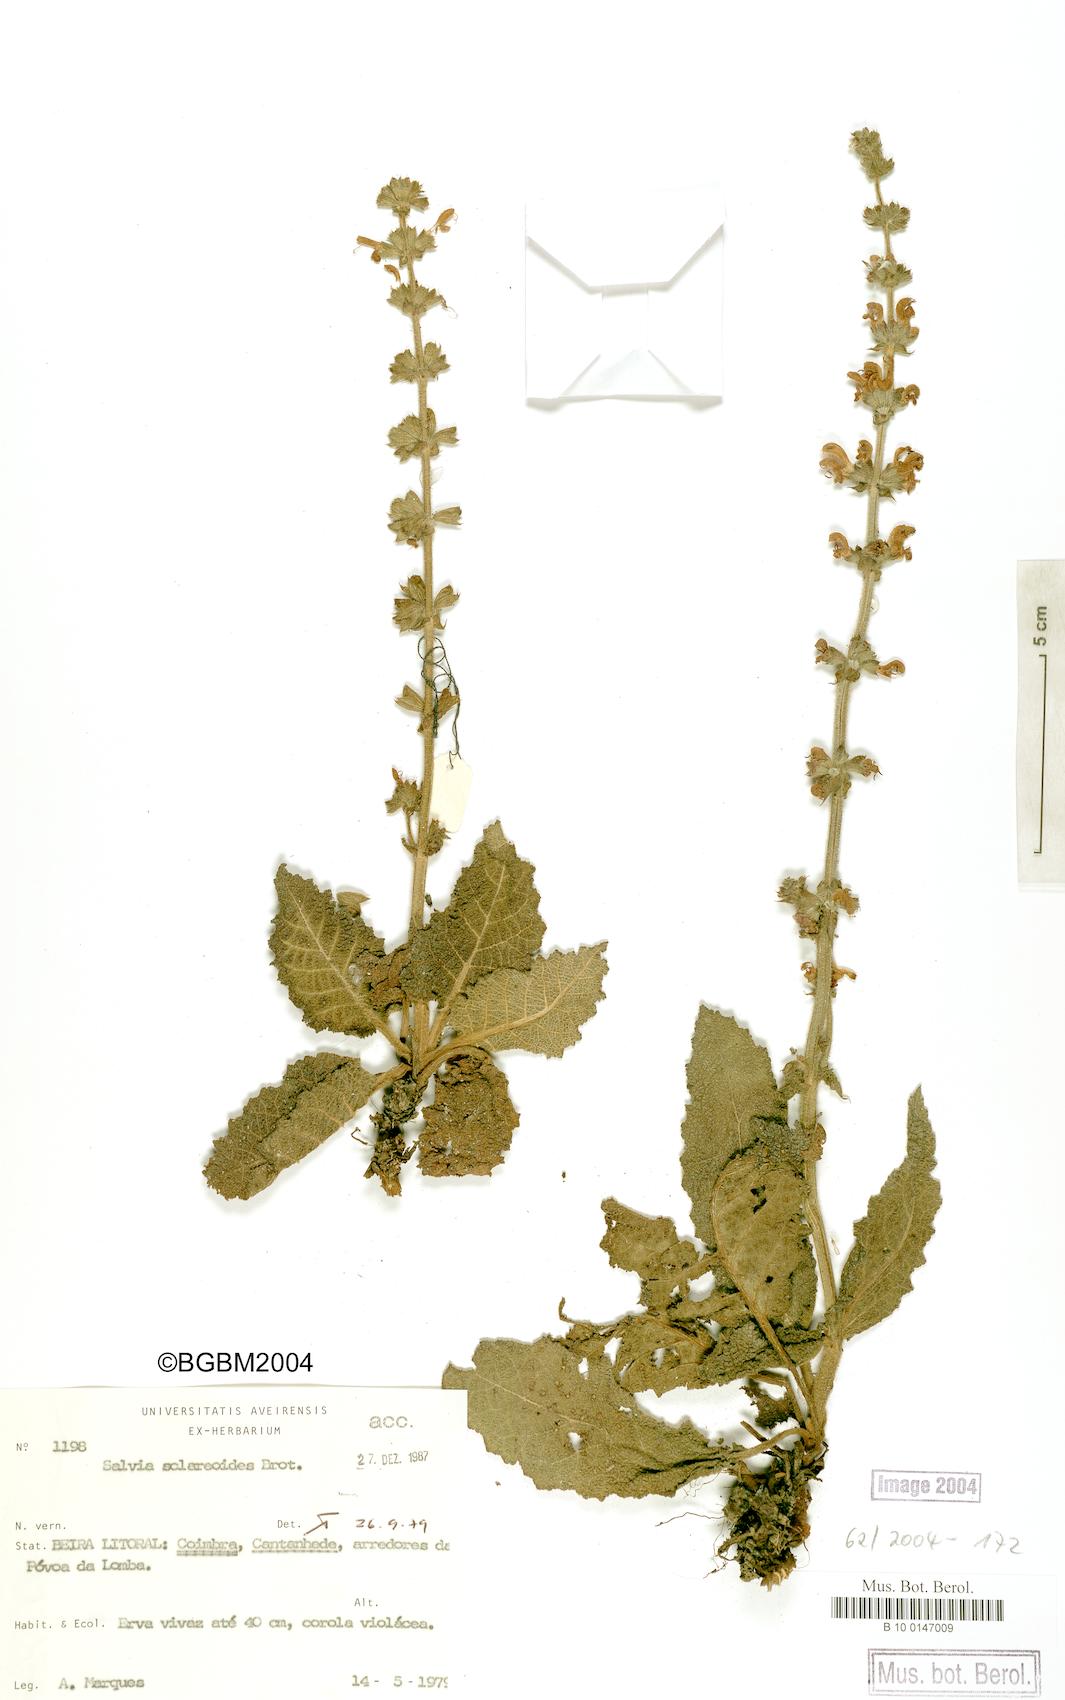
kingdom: Plantae
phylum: Tracheophyta
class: Magnoliopsida
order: Lamiales
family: Lamiaceae
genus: Salvia
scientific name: Salvia sclareoides
